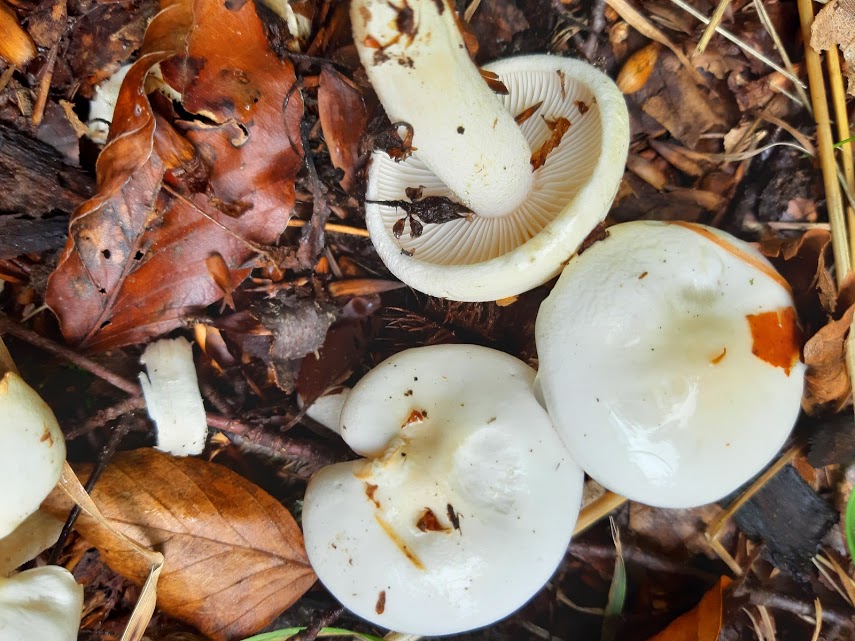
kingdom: Fungi
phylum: Basidiomycota
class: Agaricomycetes
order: Agaricales
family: Hygrophoraceae
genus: Hygrophorus
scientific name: Hygrophorus
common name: sneglehat
